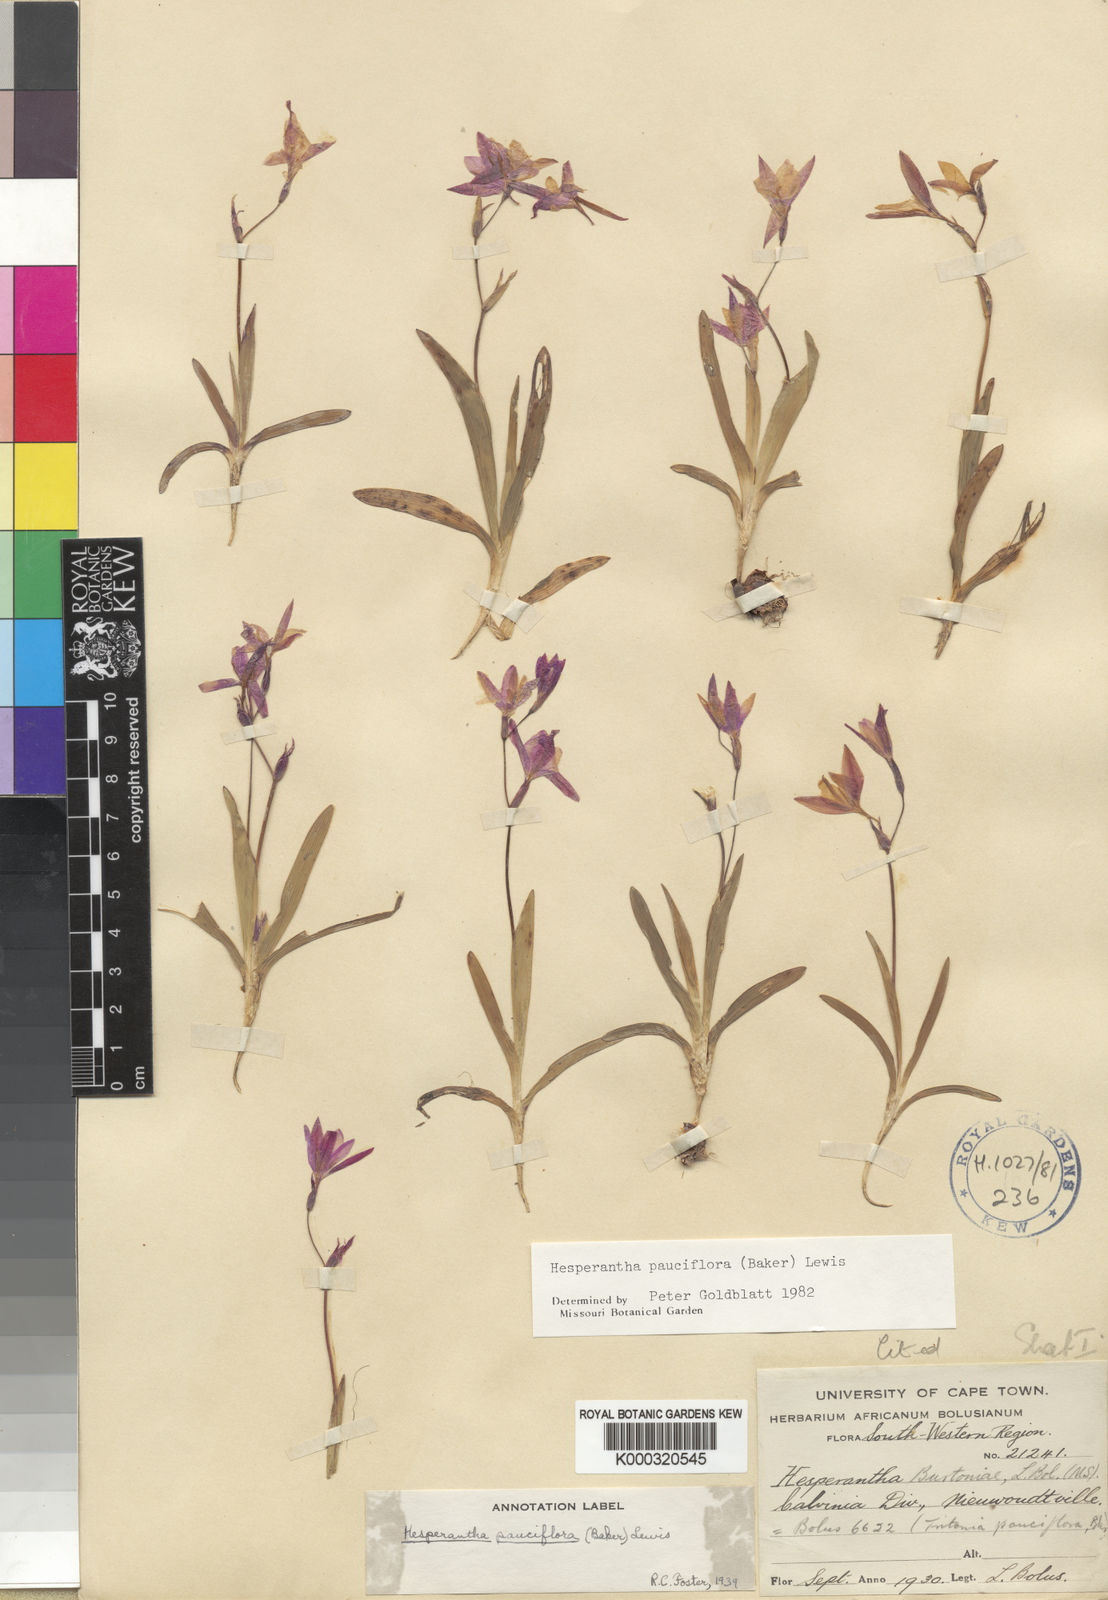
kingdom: Plantae
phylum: Tracheophyta
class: Liliopsida
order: Asparagales
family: Iridaceae
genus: Hesperantha
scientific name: Hesperantha pauciflora
